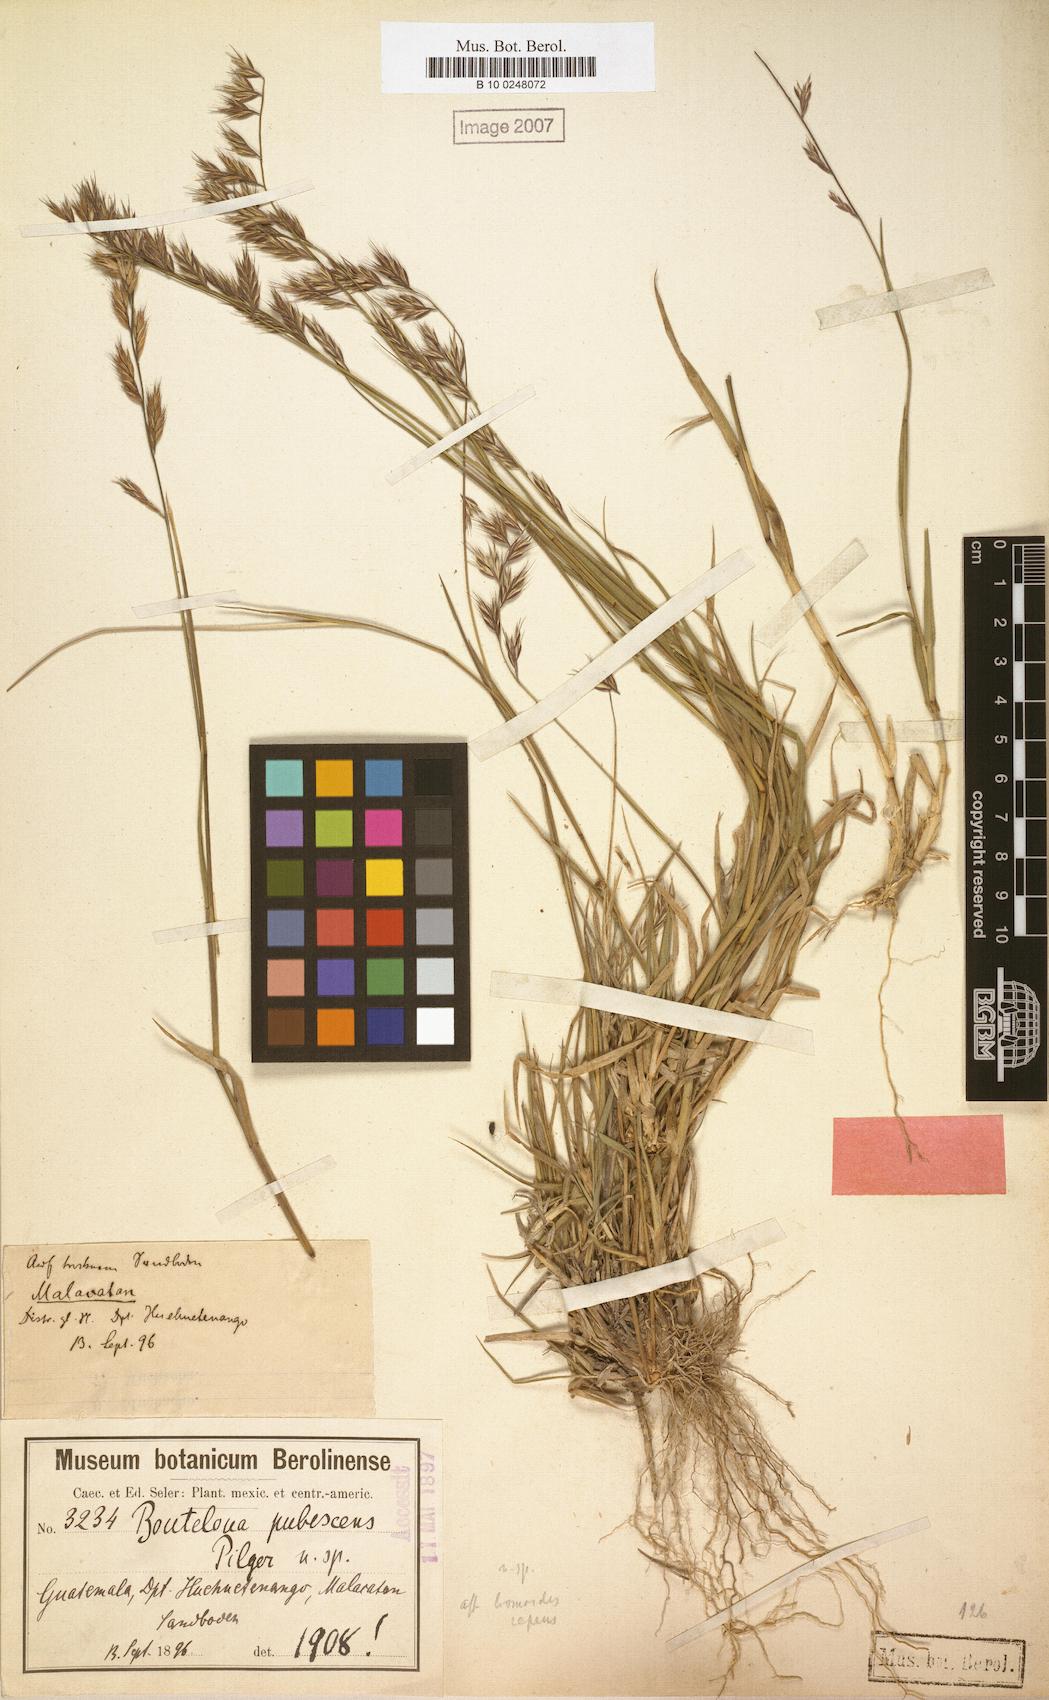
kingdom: Plantae
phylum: Tracheophyta
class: Liliopsida
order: Poales
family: Poaceae
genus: Bouteloua
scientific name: Bouteloua repens
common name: Slender grama
